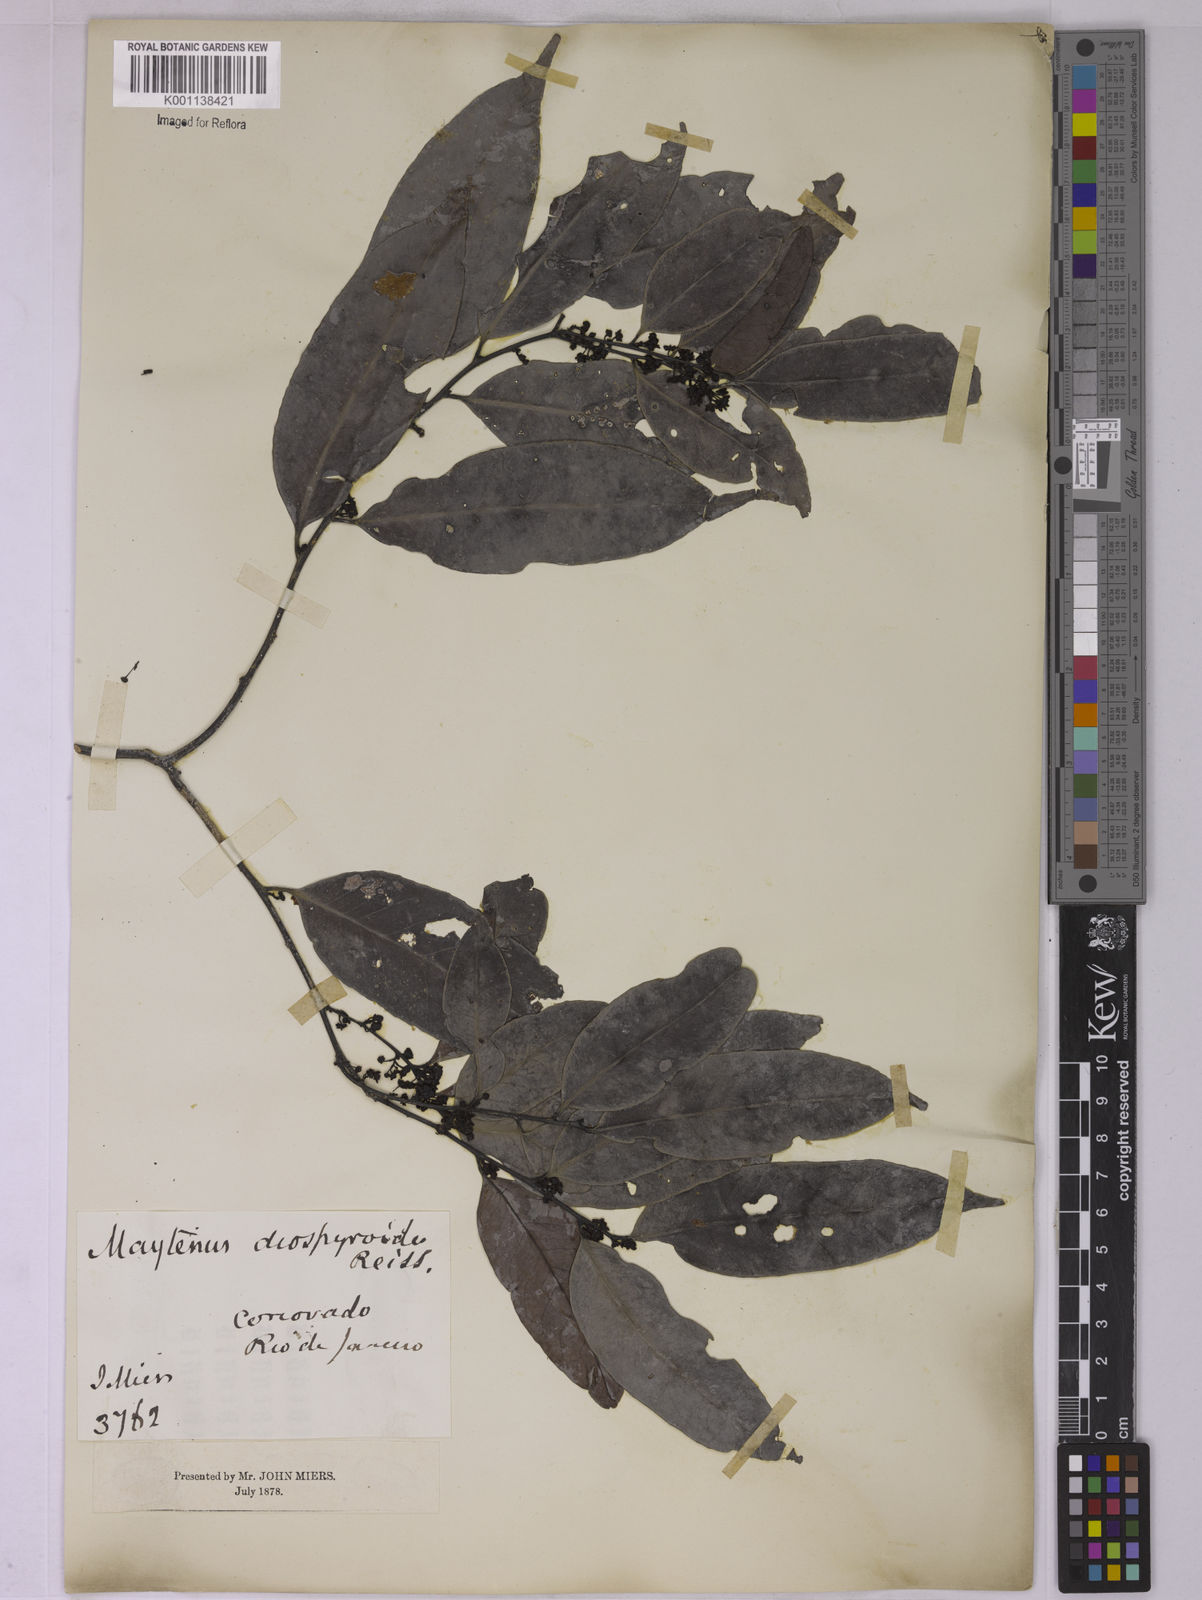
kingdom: Plantae
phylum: Tracheophyta
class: Magnoliopsida
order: Celastrales
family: Celastraceae
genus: Monteverdia
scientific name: Monteverdia distichophylla
